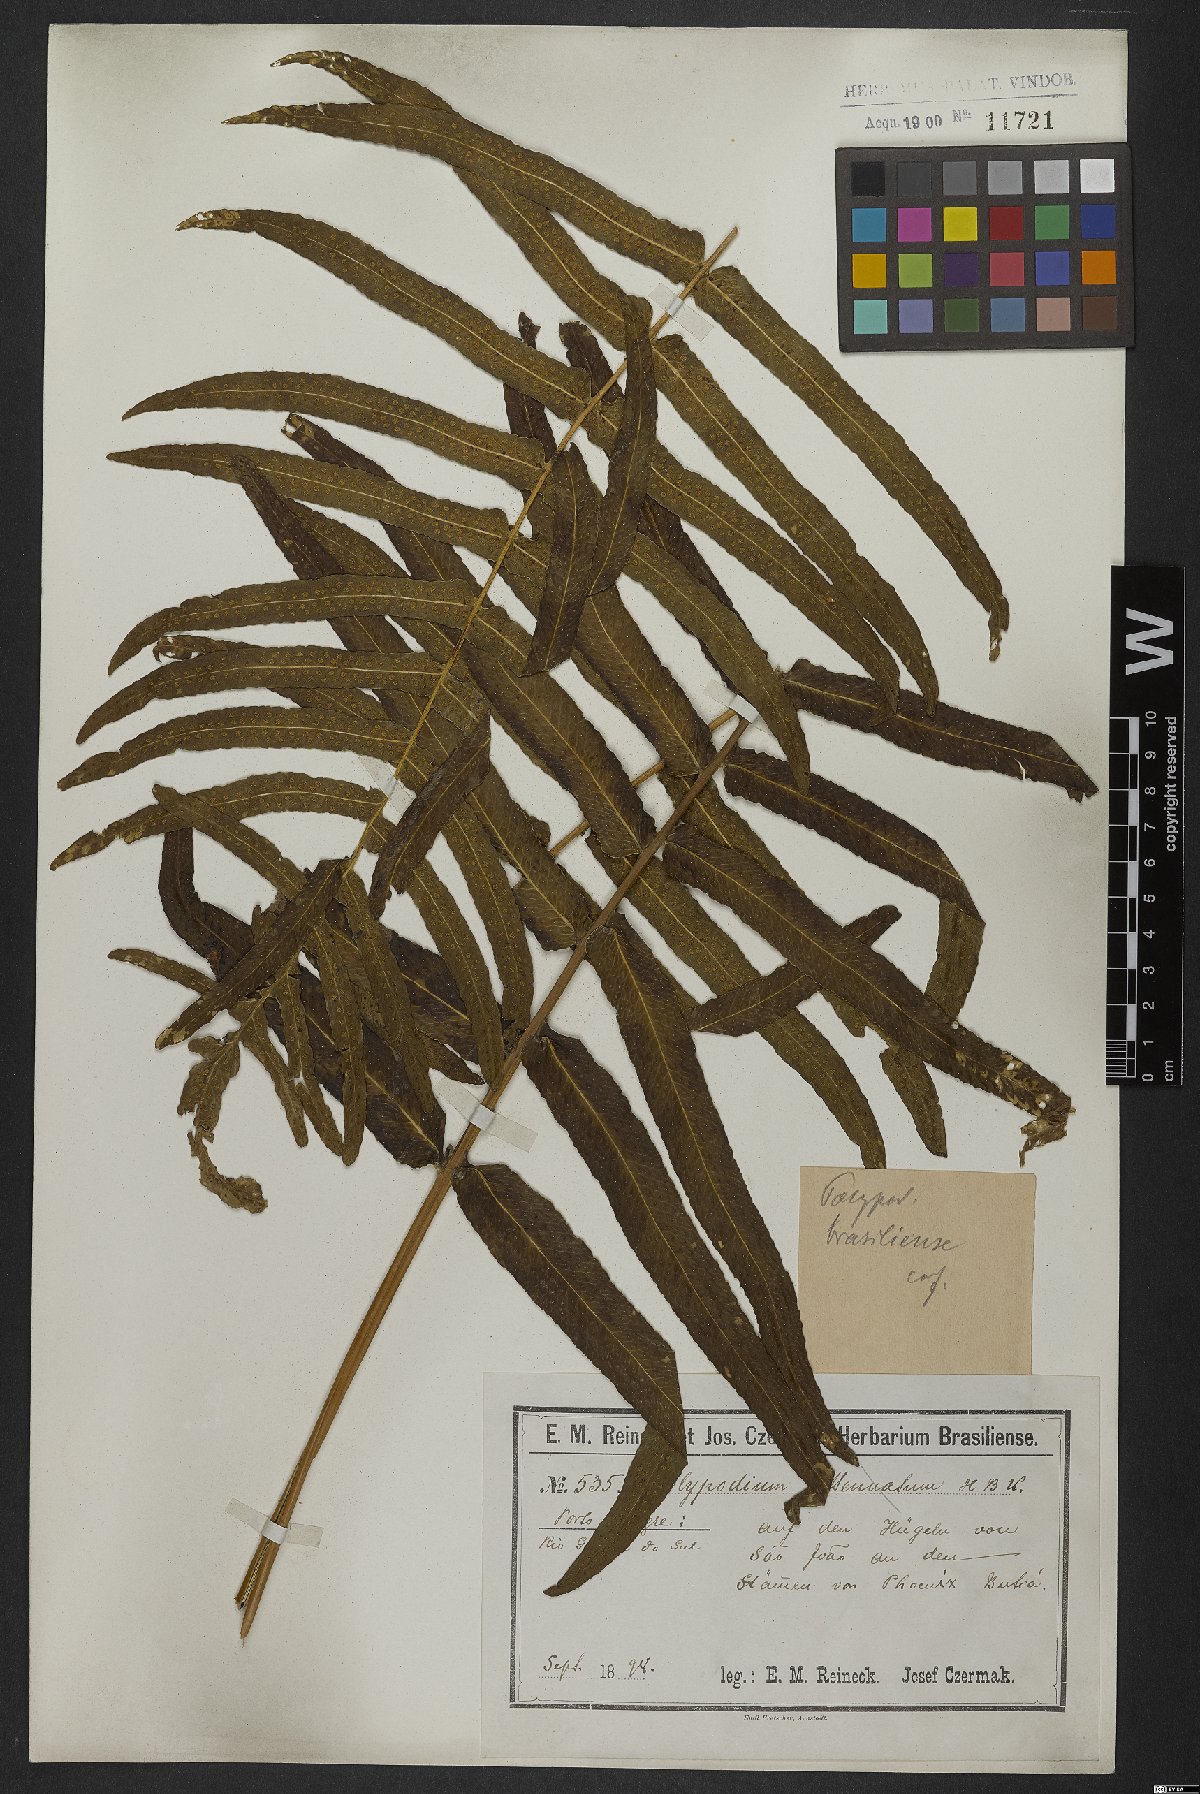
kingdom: Plantae
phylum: Tracheophyta
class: Polypodiopsida
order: Polypodiales
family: Polypodiaceae
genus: Serpocaulon
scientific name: Serpocaulon triseriale
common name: Angle-vein fern
